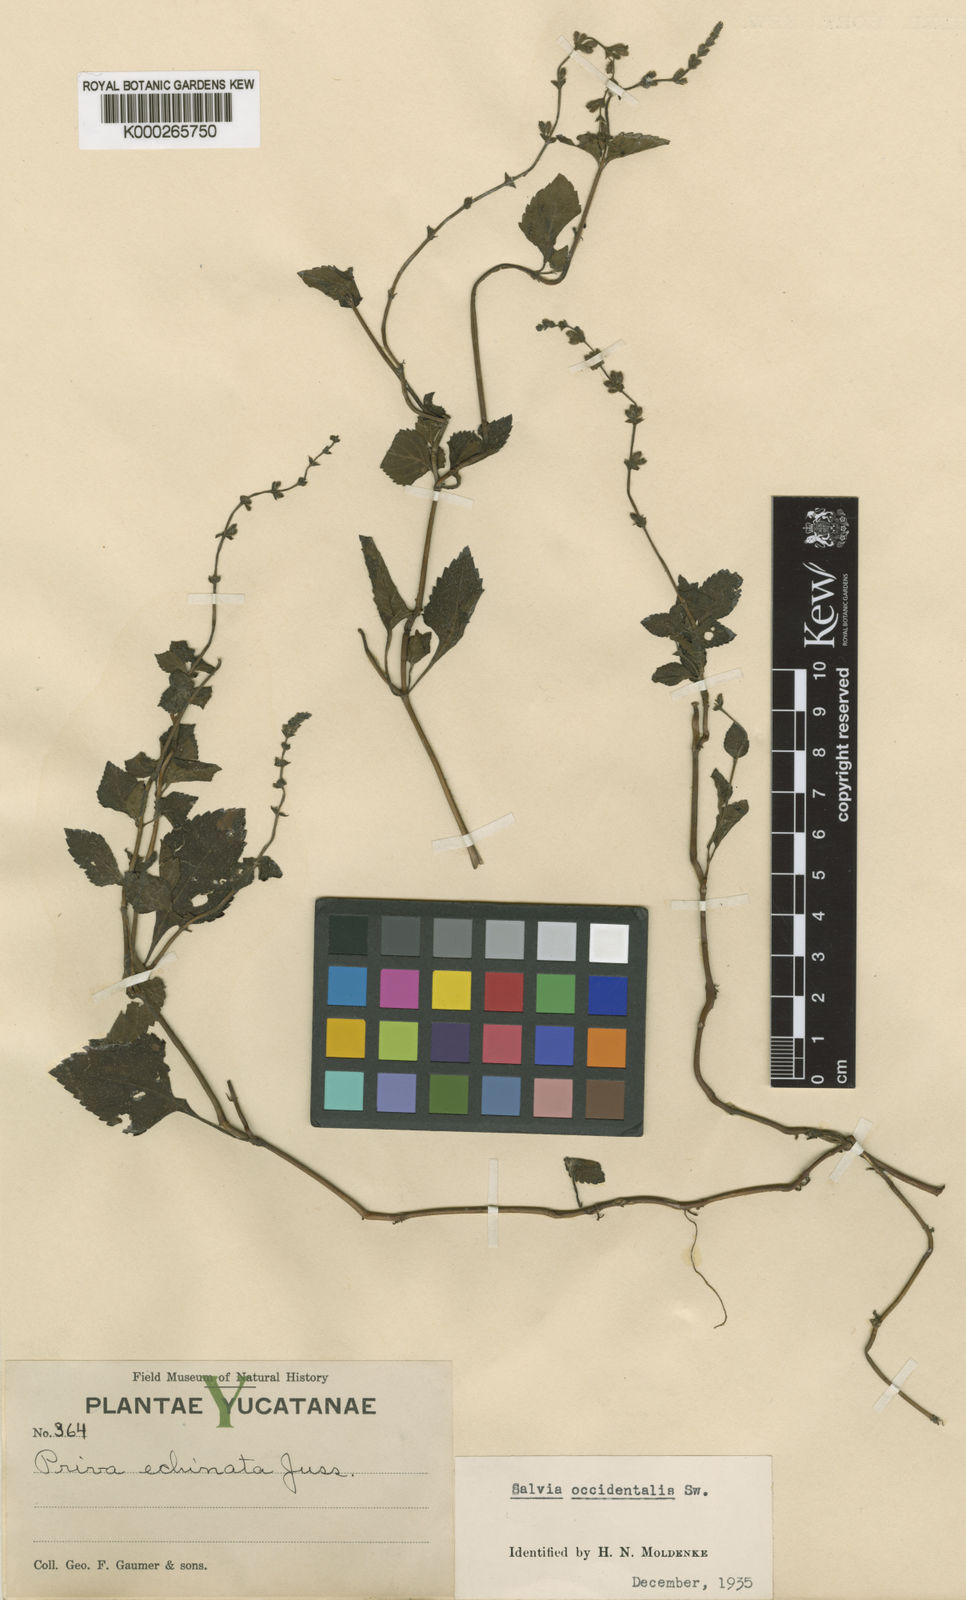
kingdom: Plantae
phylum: Tracheophyta
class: Magnoliopsida
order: Lamiales
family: Lamiaceae
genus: Salvia
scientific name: Salvia occidentalis
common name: West indian sage
